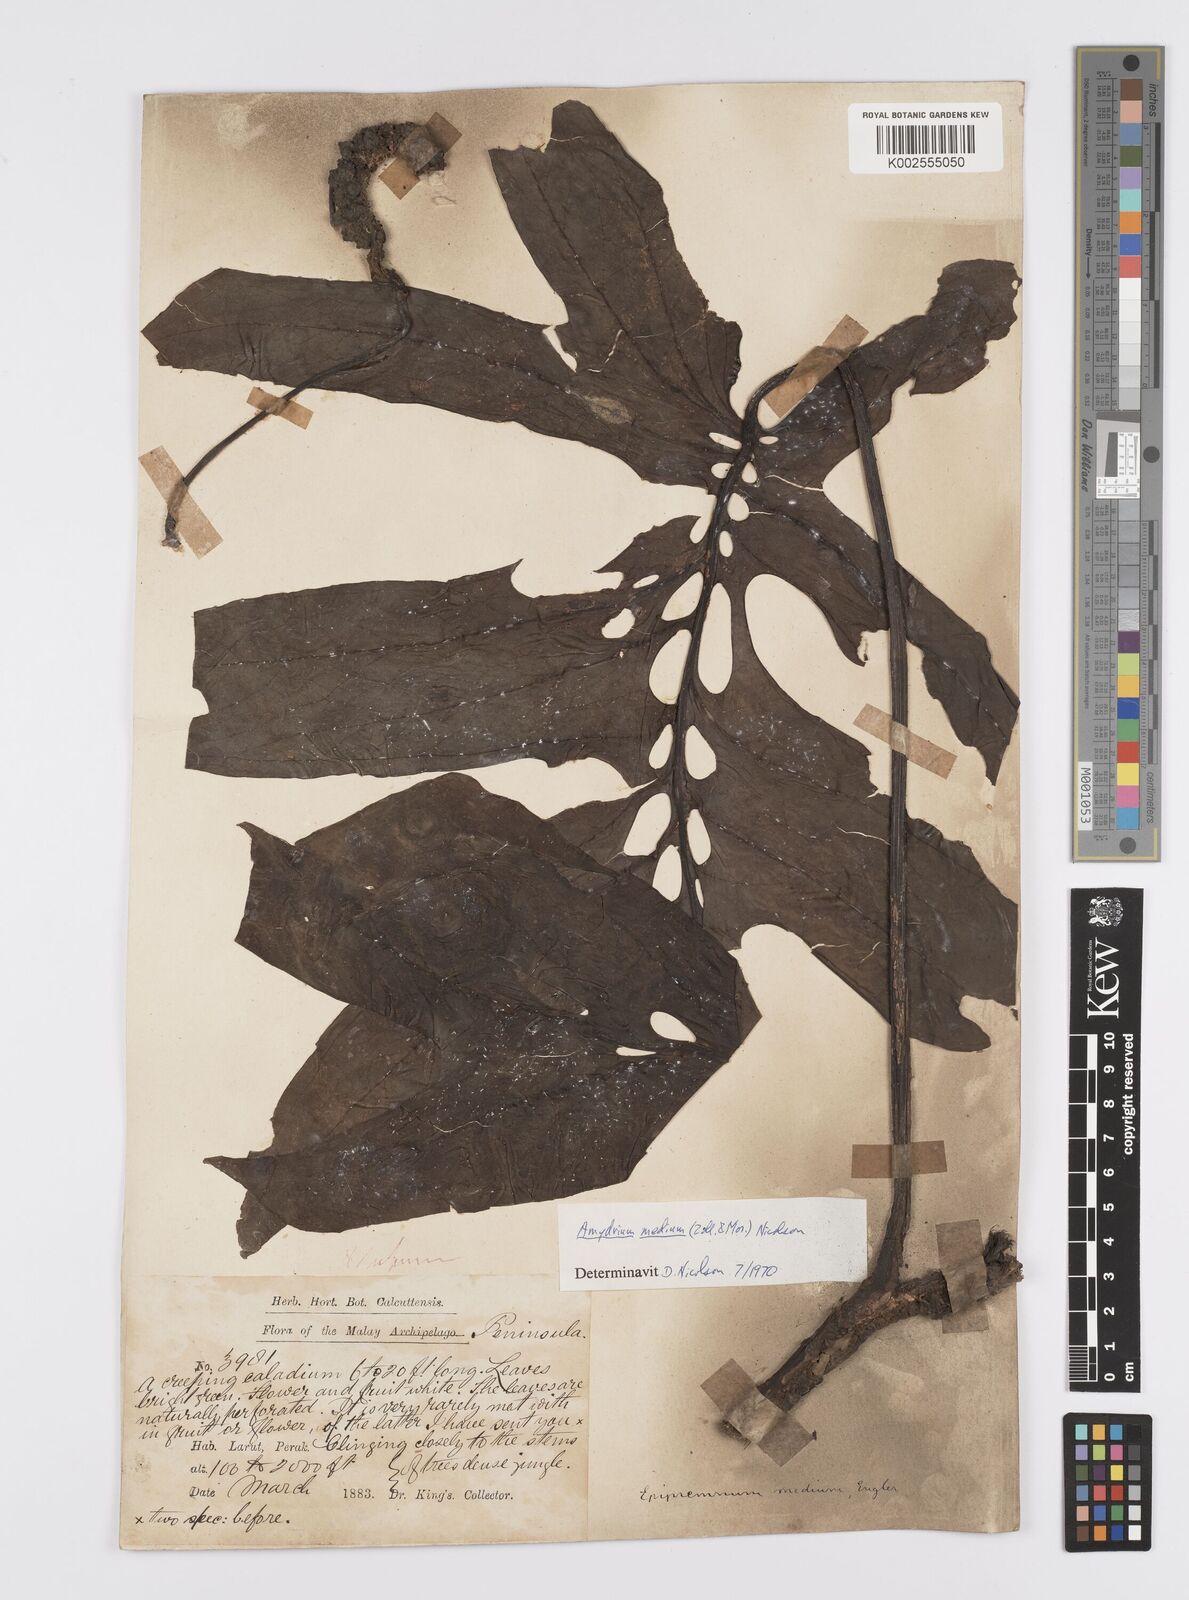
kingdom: Plantae
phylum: Tracheophyta
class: Liliopsida
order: Alismatales
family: Araceae
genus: Amydrium
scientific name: Amydrium medium
